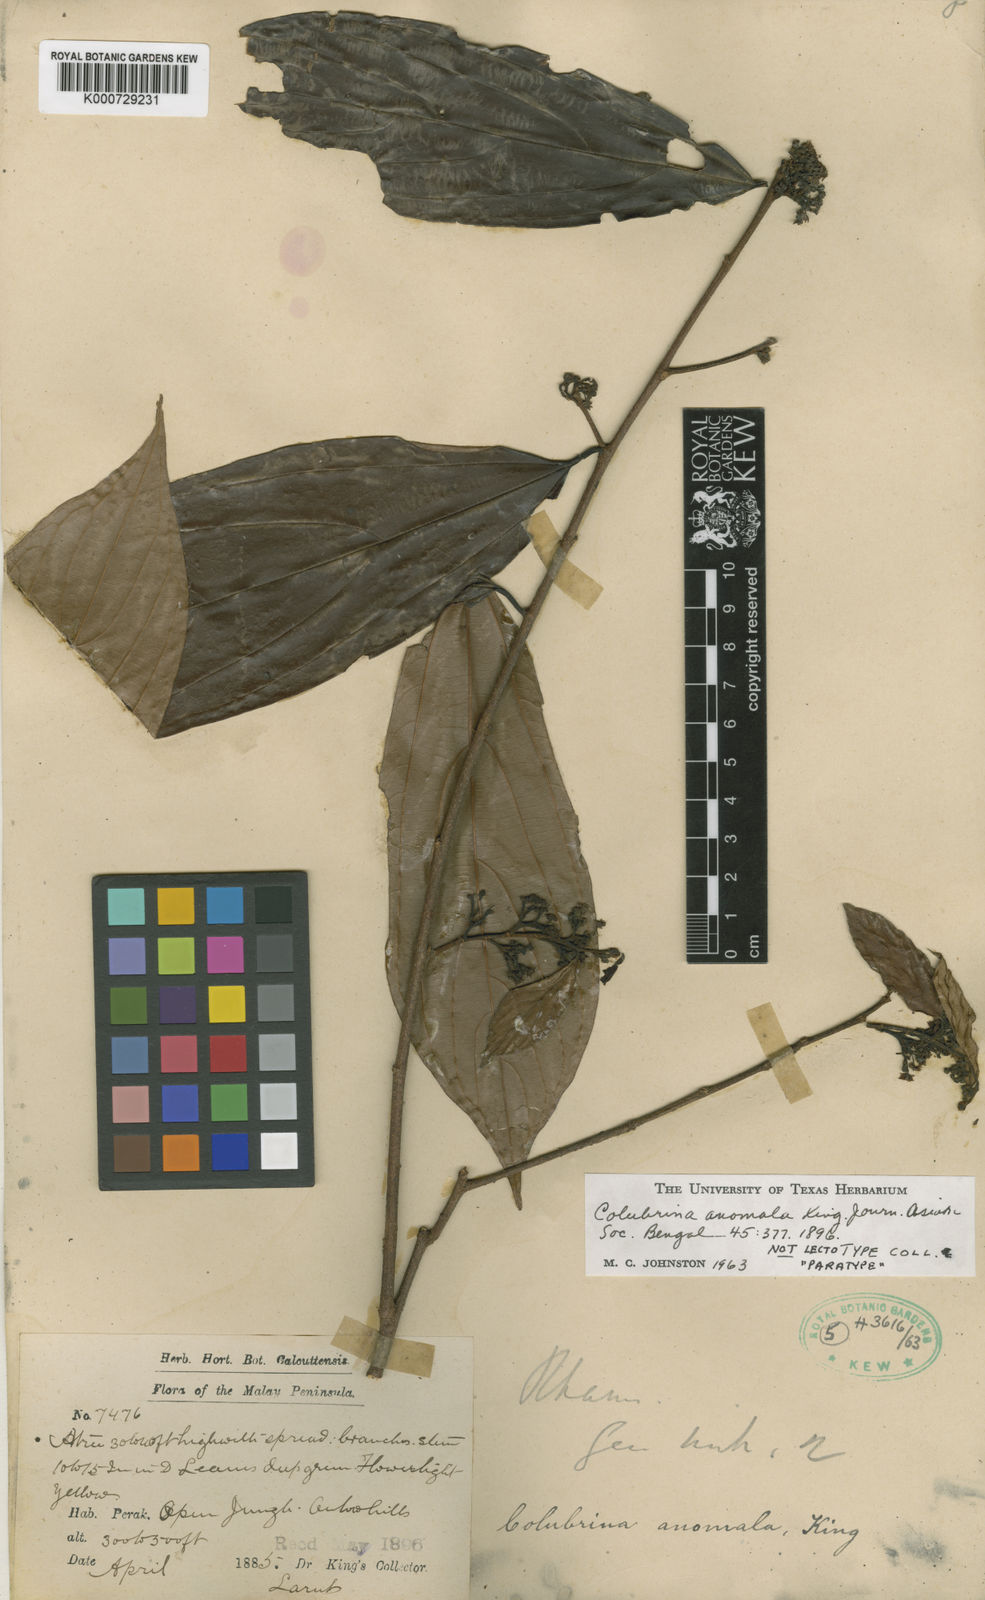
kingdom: Plantae
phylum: Tracheophyta
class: Magnoliopsida
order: Rosales
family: Rhamnaceae
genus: Colubrina
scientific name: Colubrina beccariana
